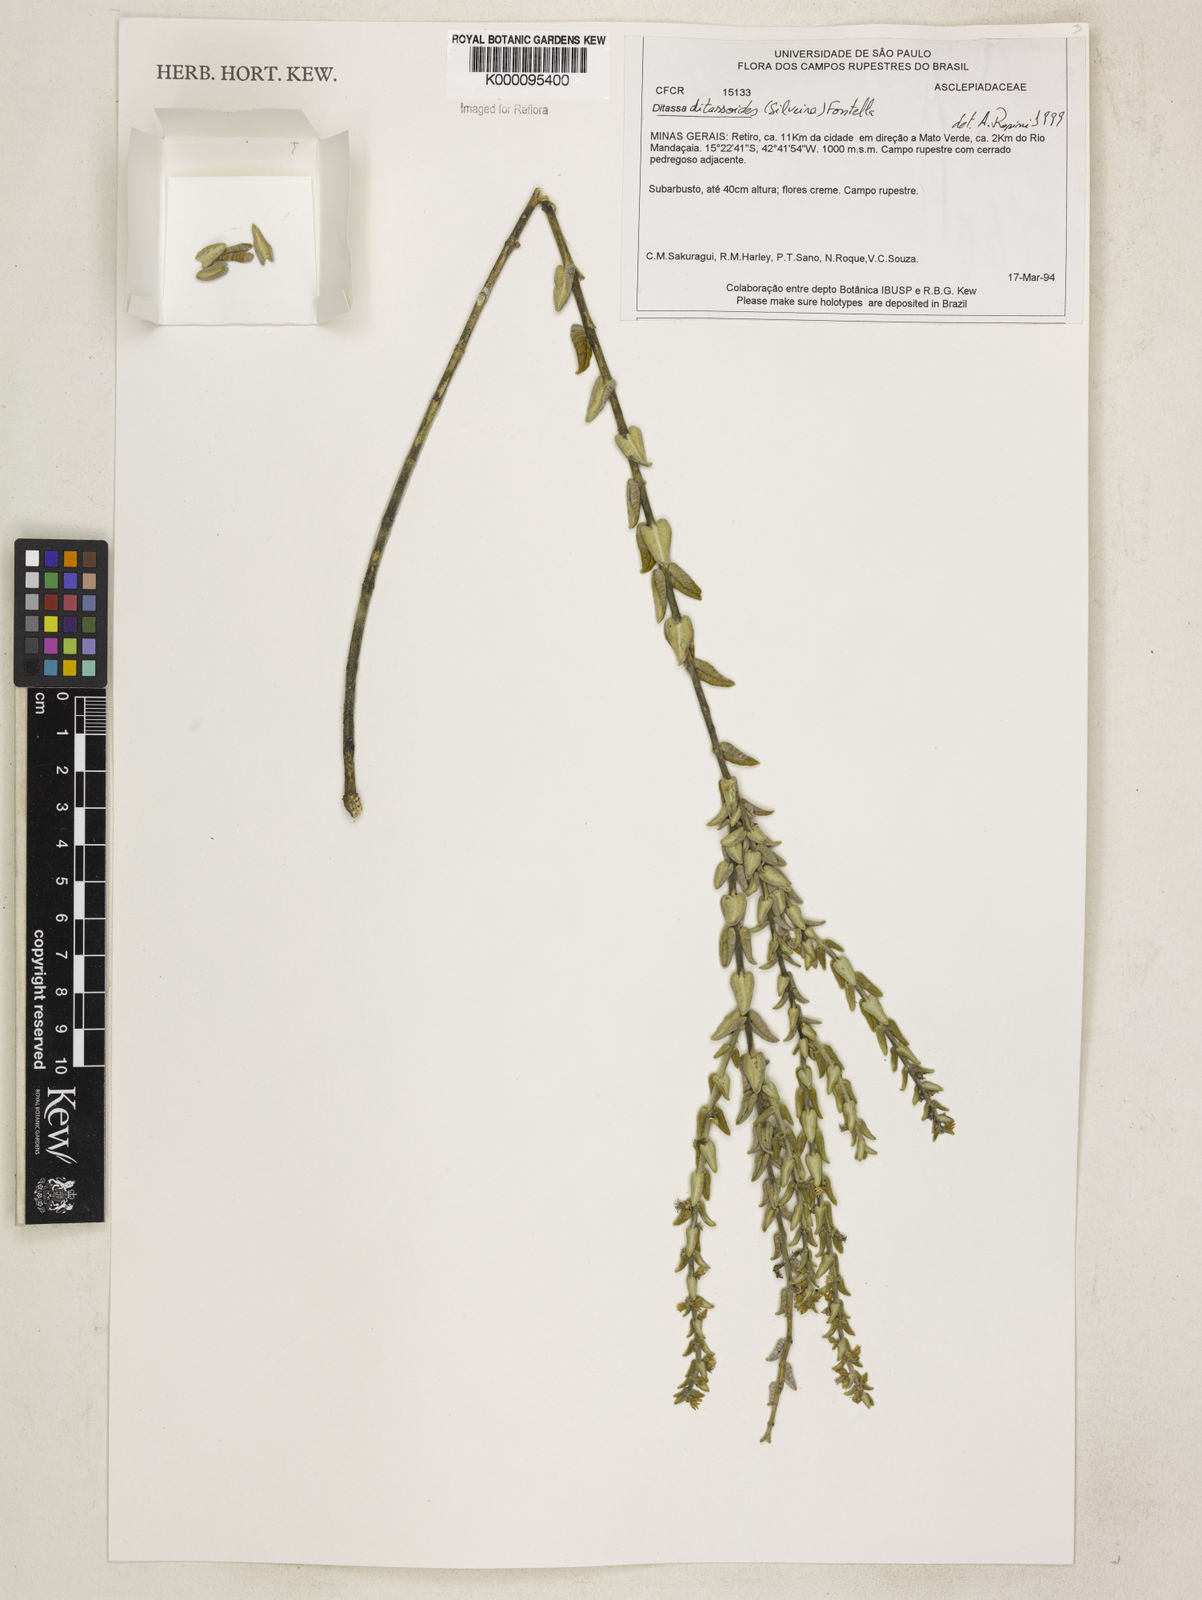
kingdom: Plantae
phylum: Tracheophyta
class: Magnoliopsida
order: Gentianales
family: Apocynaceae
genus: Minaria
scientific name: Minaria ditassoides
